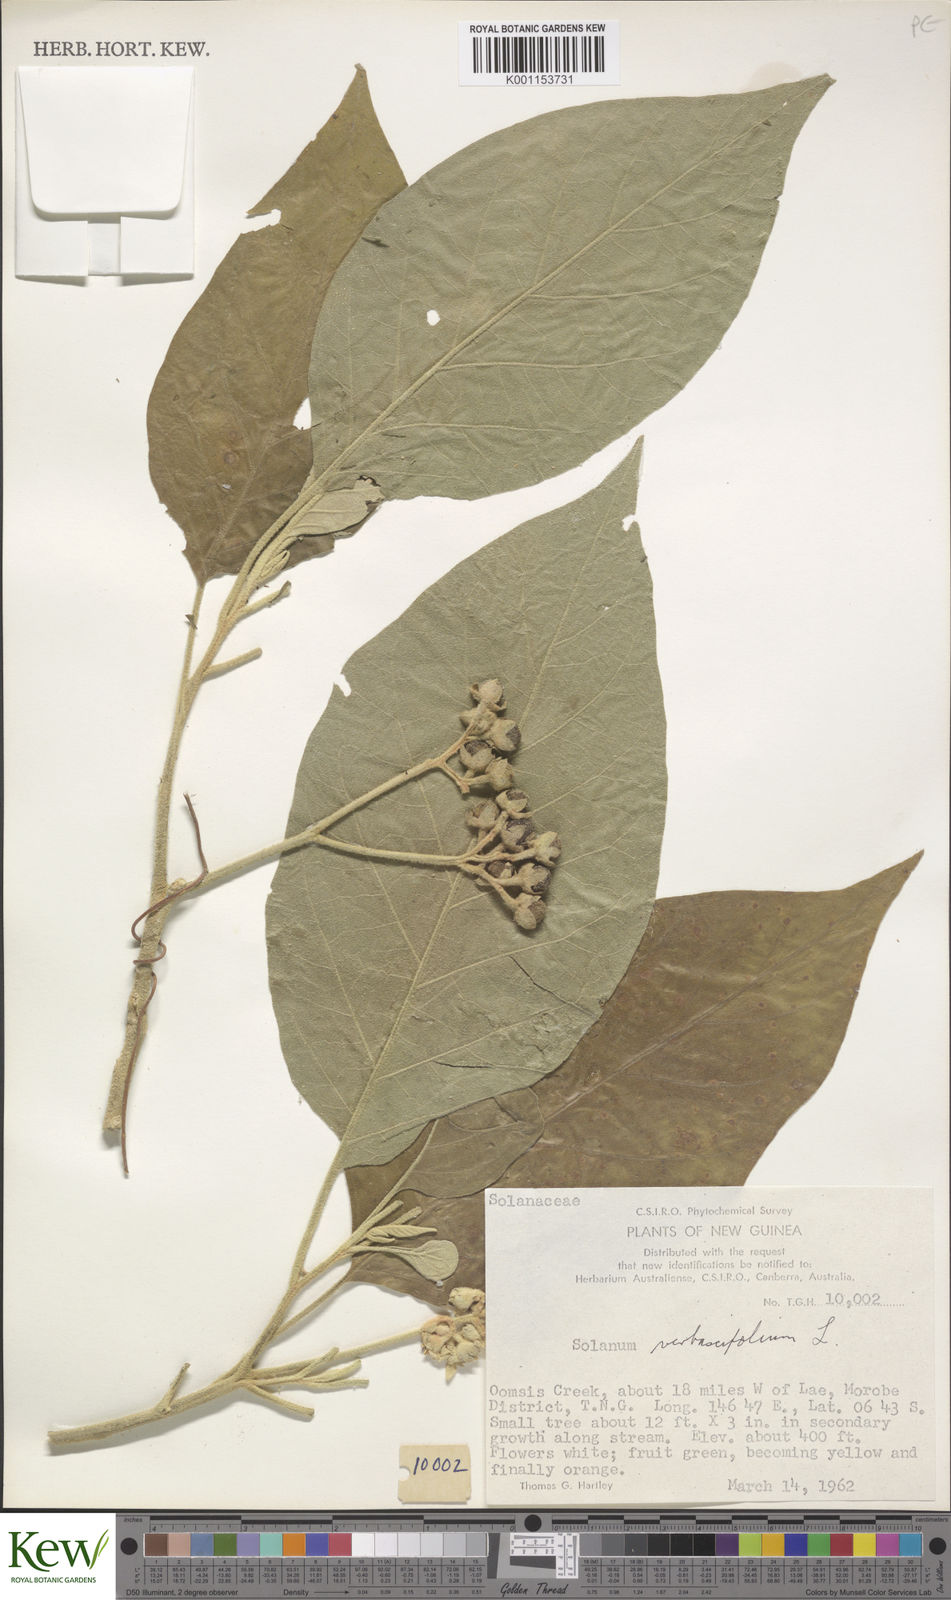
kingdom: Plantae
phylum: Tracheophyta
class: Magnoliopsida
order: Solanales
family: Solanaceae
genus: Solanum
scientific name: Solanum erianthum
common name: Tobacco-tree
